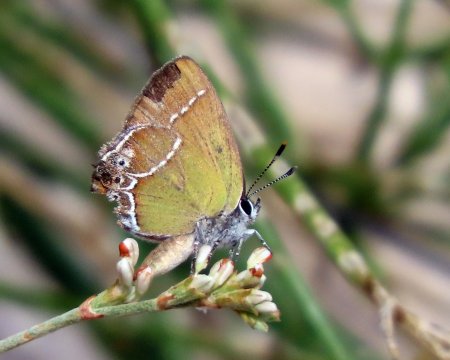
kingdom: Animalia
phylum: Arthropoda
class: Insecta
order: Lepidoptera
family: Lycaenidae
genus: Xamia
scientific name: Xamia xami
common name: Xami Hairstreak
